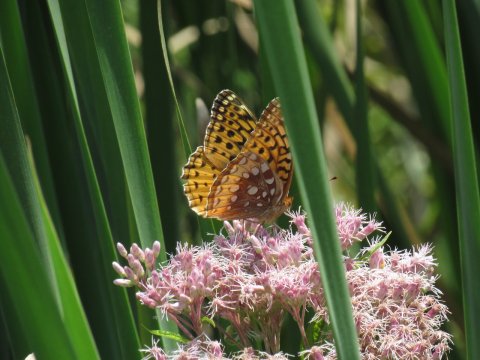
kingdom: Animalia
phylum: Arthropoda
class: Insecta
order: Lepidoptera
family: Nymphalidae
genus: Speyeria
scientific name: Speyeria cybele
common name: Great Spangled Fritillary
